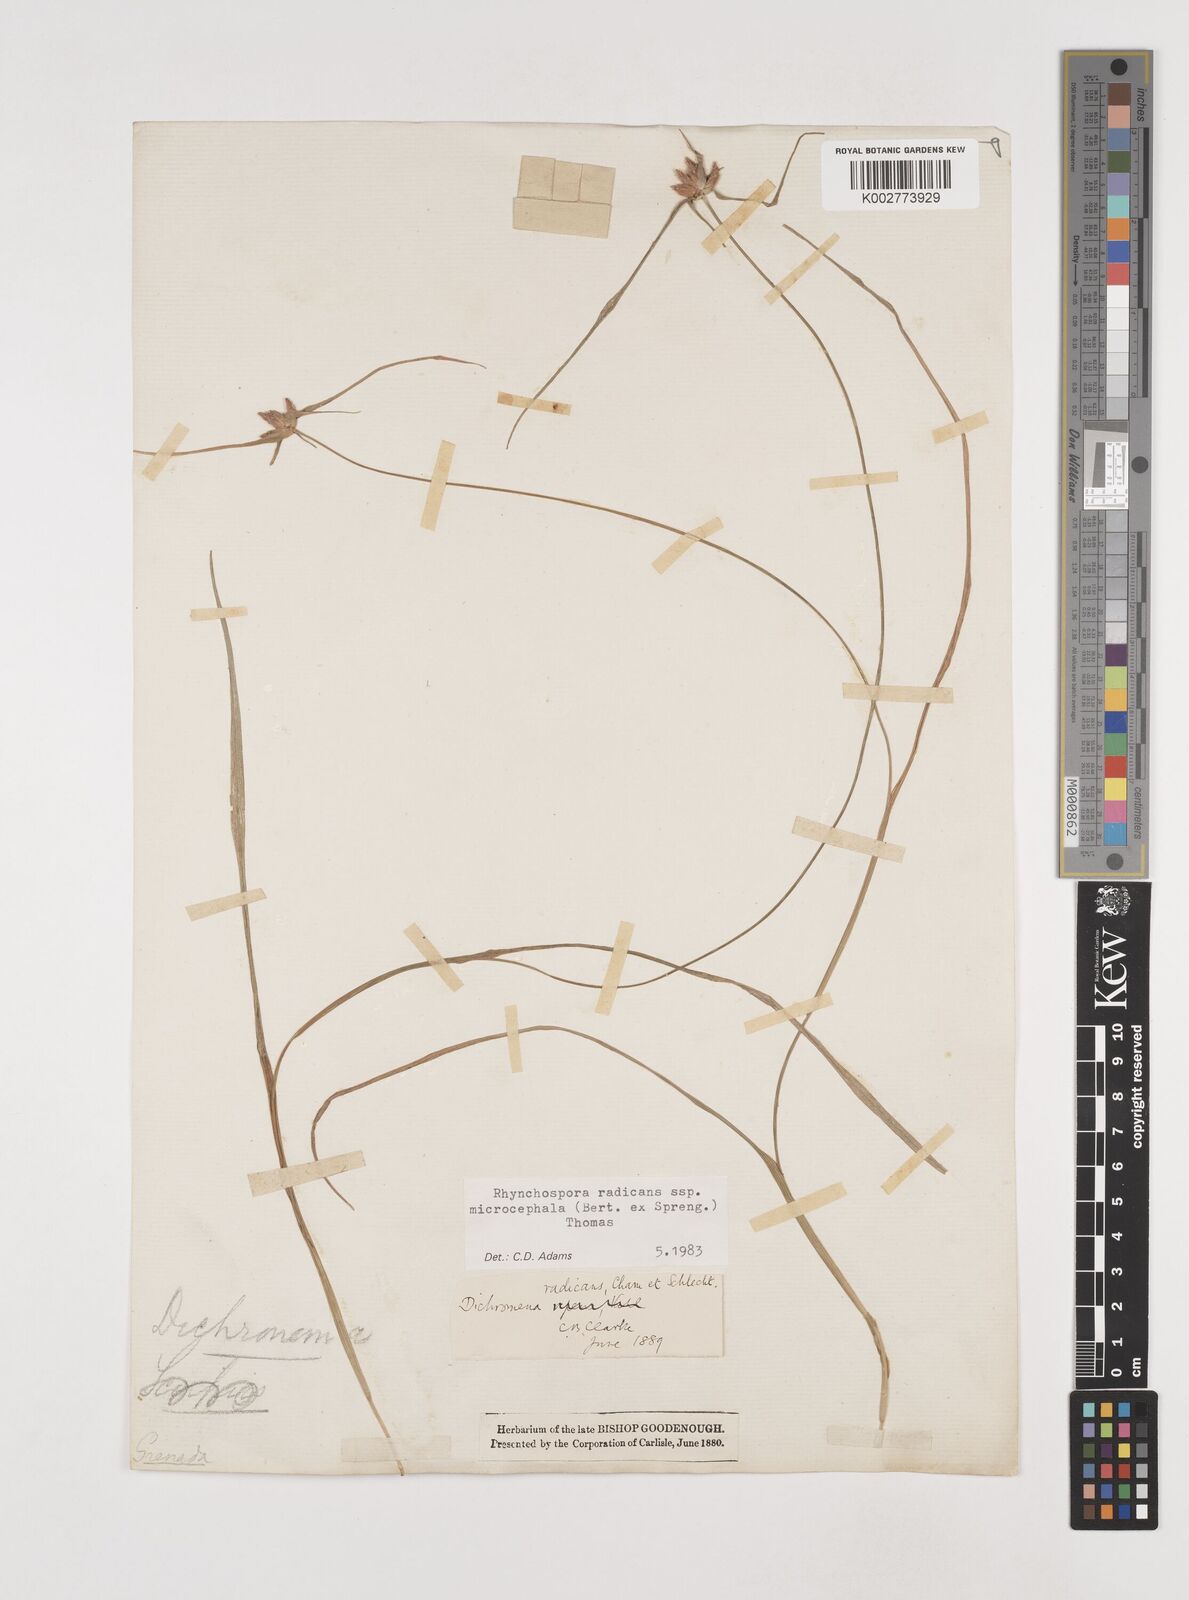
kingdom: Plantae
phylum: Tracheophyta
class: Liliopsida
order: Poales
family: Cyperaceae
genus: Rhynchospora
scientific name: Rhynchospora radicans
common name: Tropical whitetop
